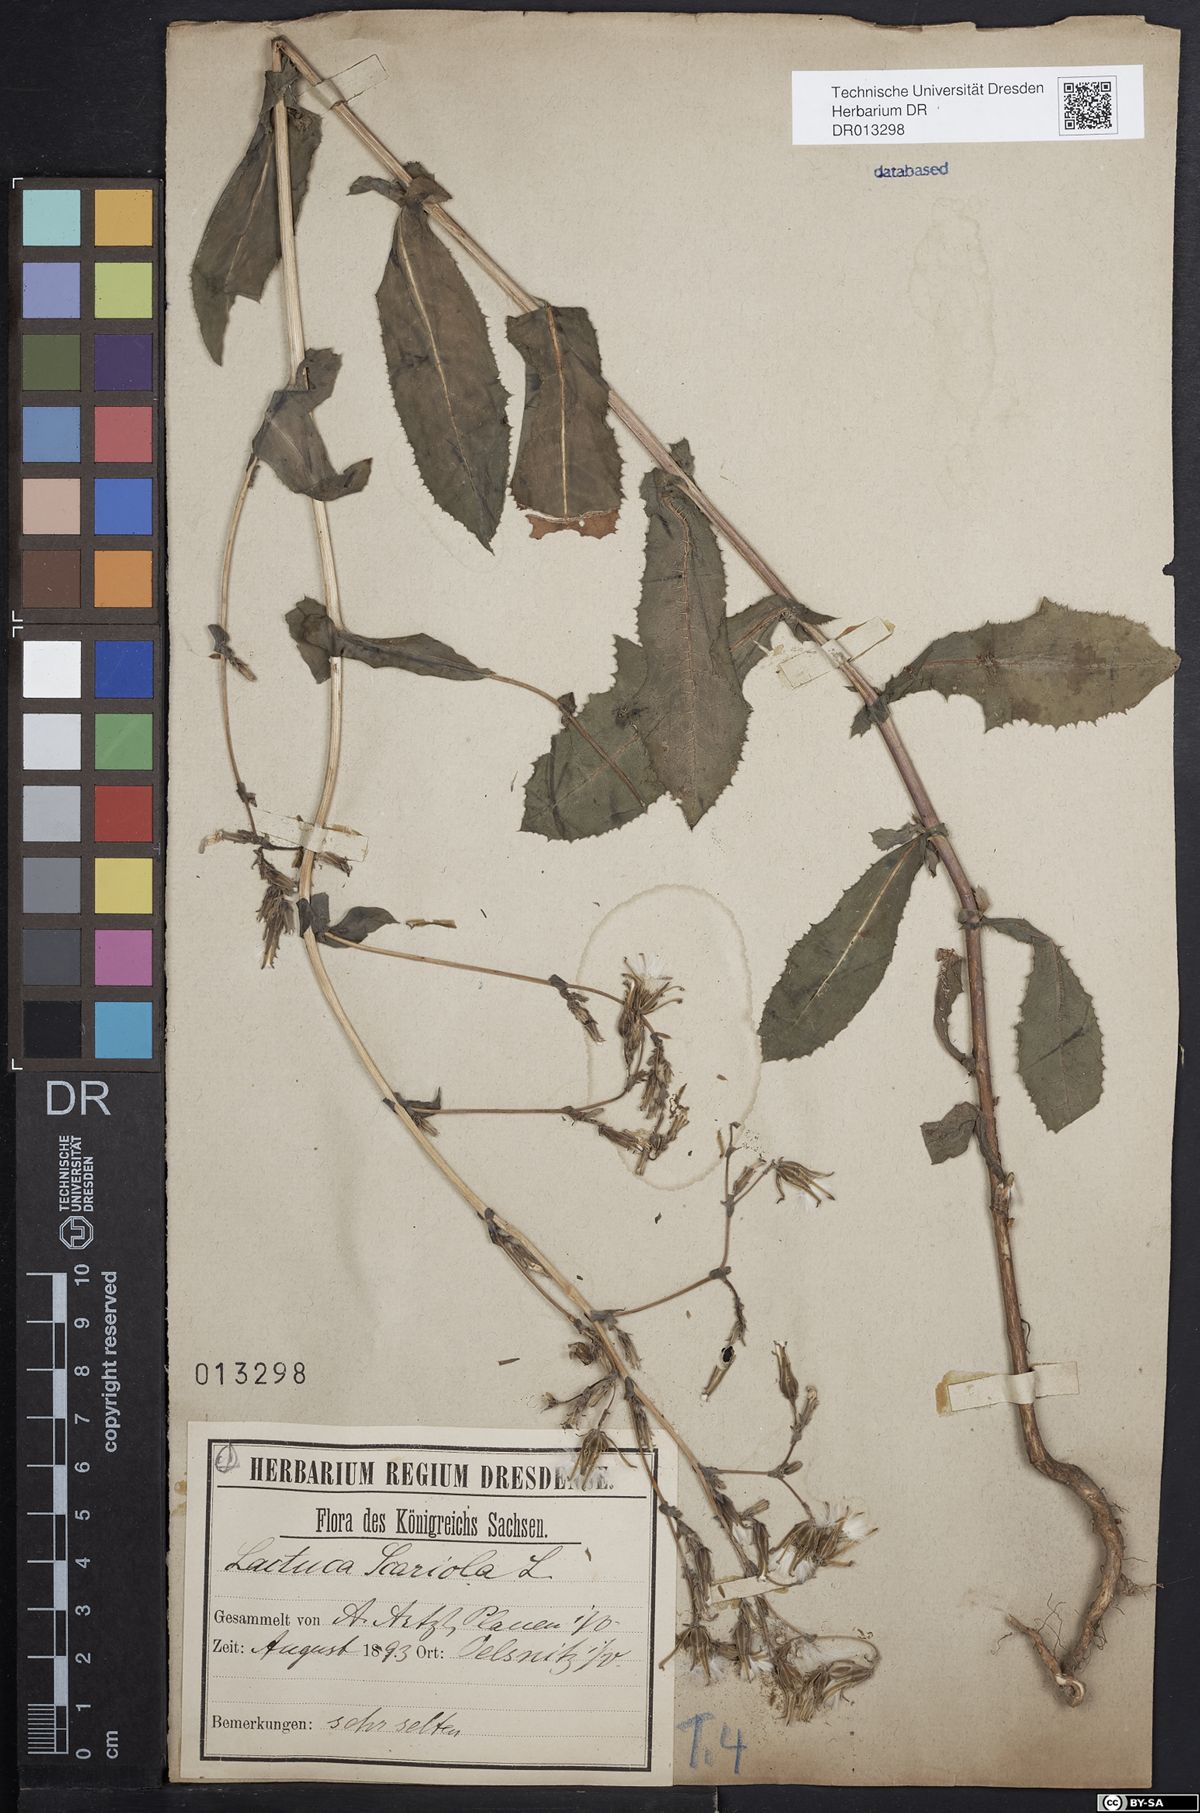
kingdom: Plantae
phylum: Tracheophyta
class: Magnoliopsida
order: Asterales
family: Asteraceae
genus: Lactuca
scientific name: Lactuca serriola
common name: Prickly lettuce
